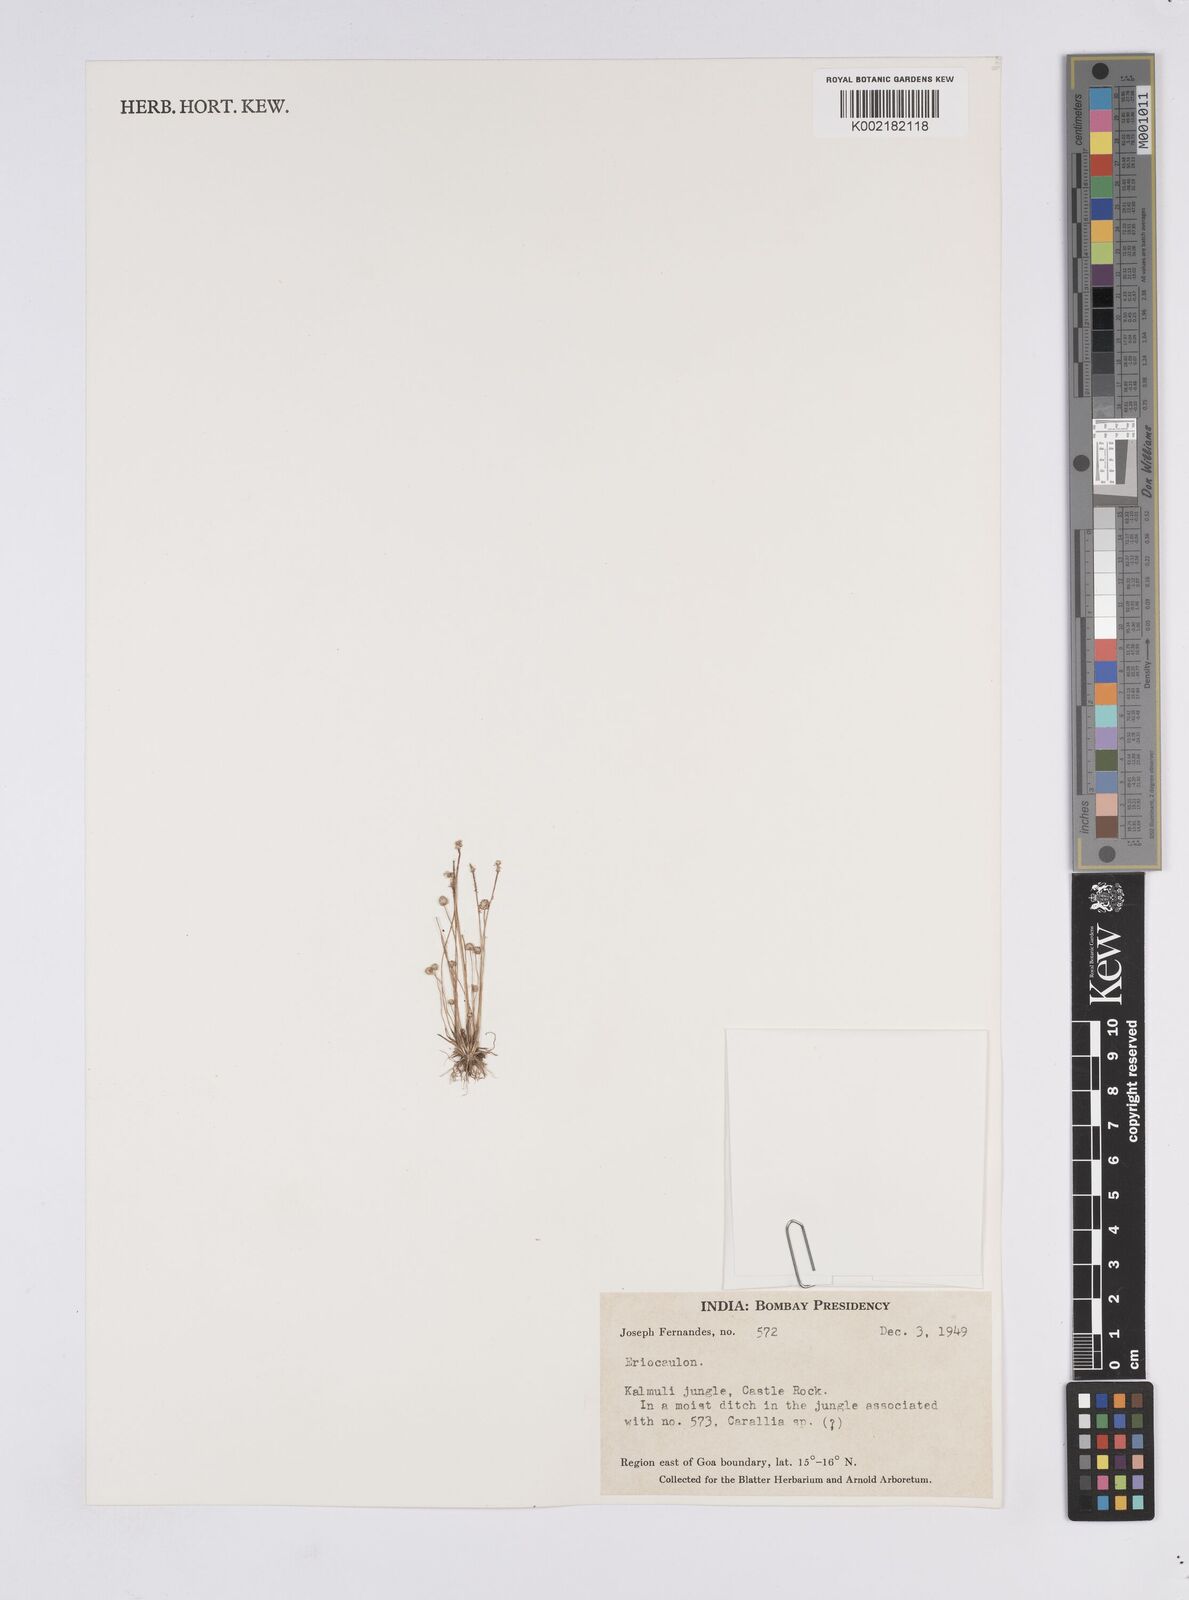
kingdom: Plantae
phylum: Tracheophyta
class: Liliopsida
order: Poales
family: Eriocaulaceae
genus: Eriocaulon
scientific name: Eriocaulon
